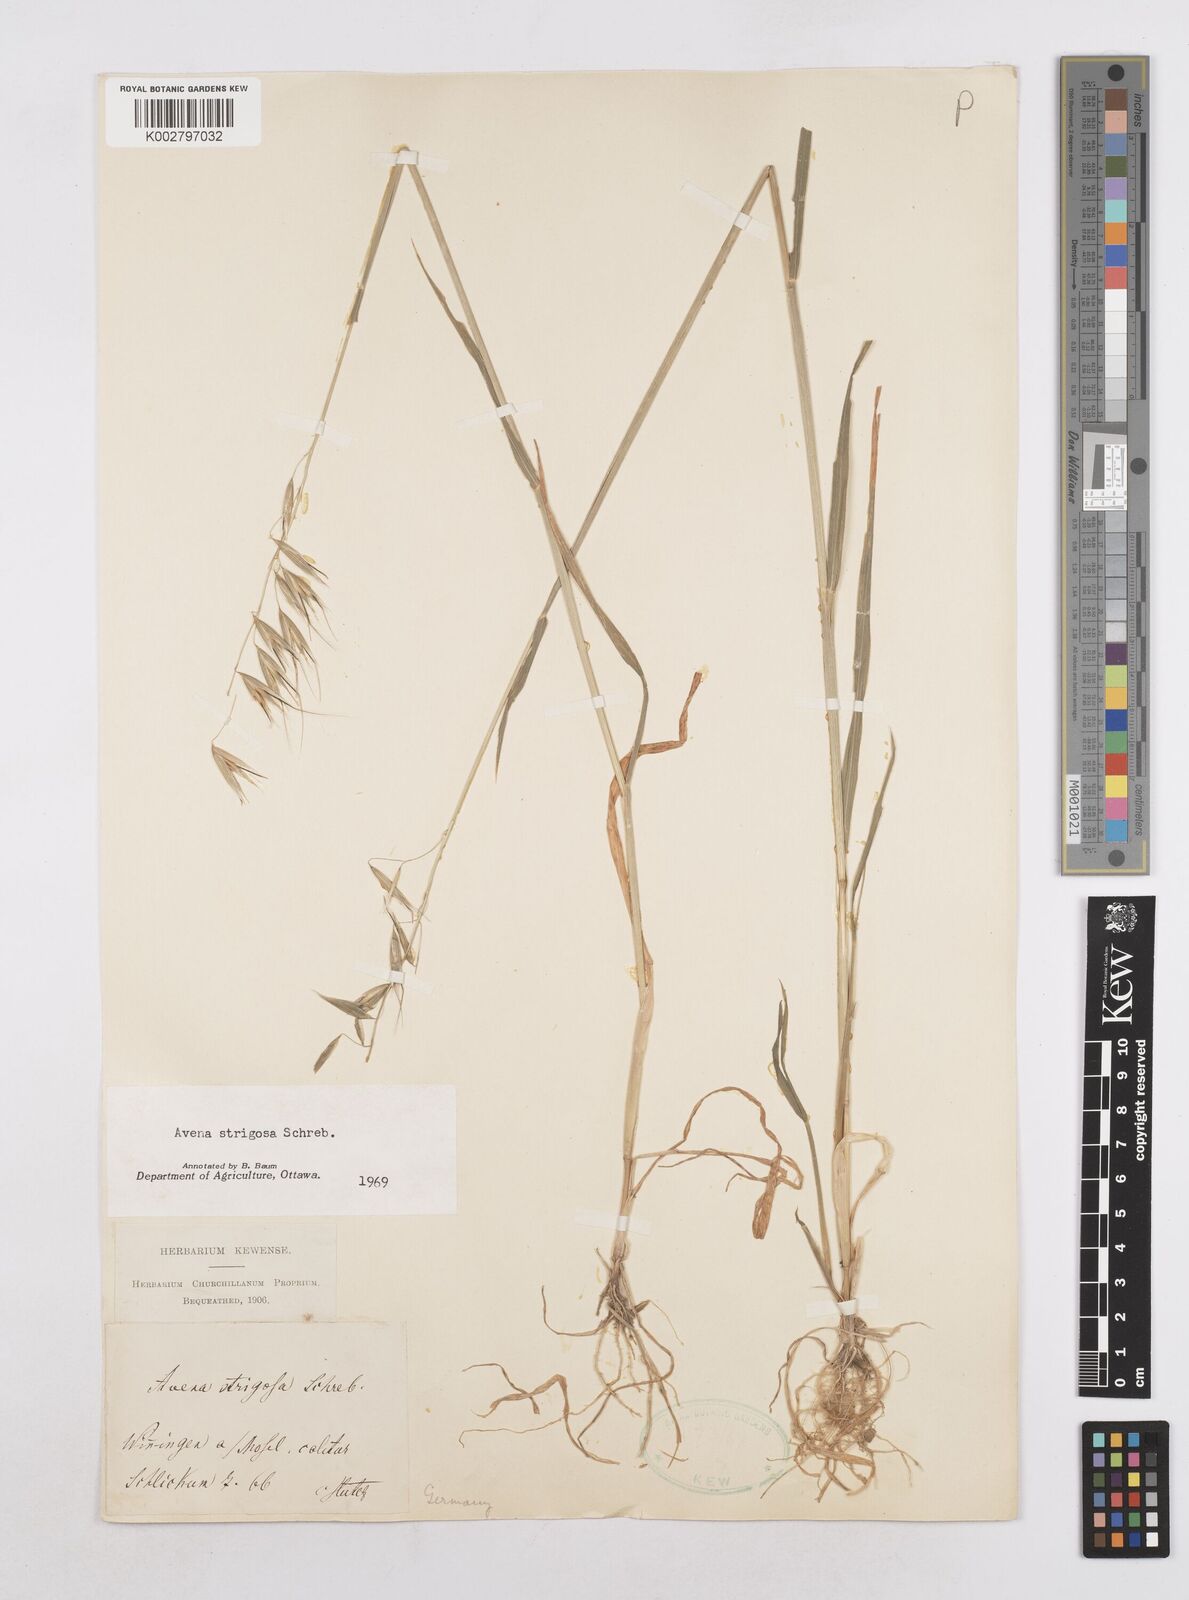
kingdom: Plantae
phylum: Tracheophyta
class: Liliopsida
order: Poales
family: Poaceae
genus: Avena
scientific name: Avena strigosa
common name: Bristle oat
